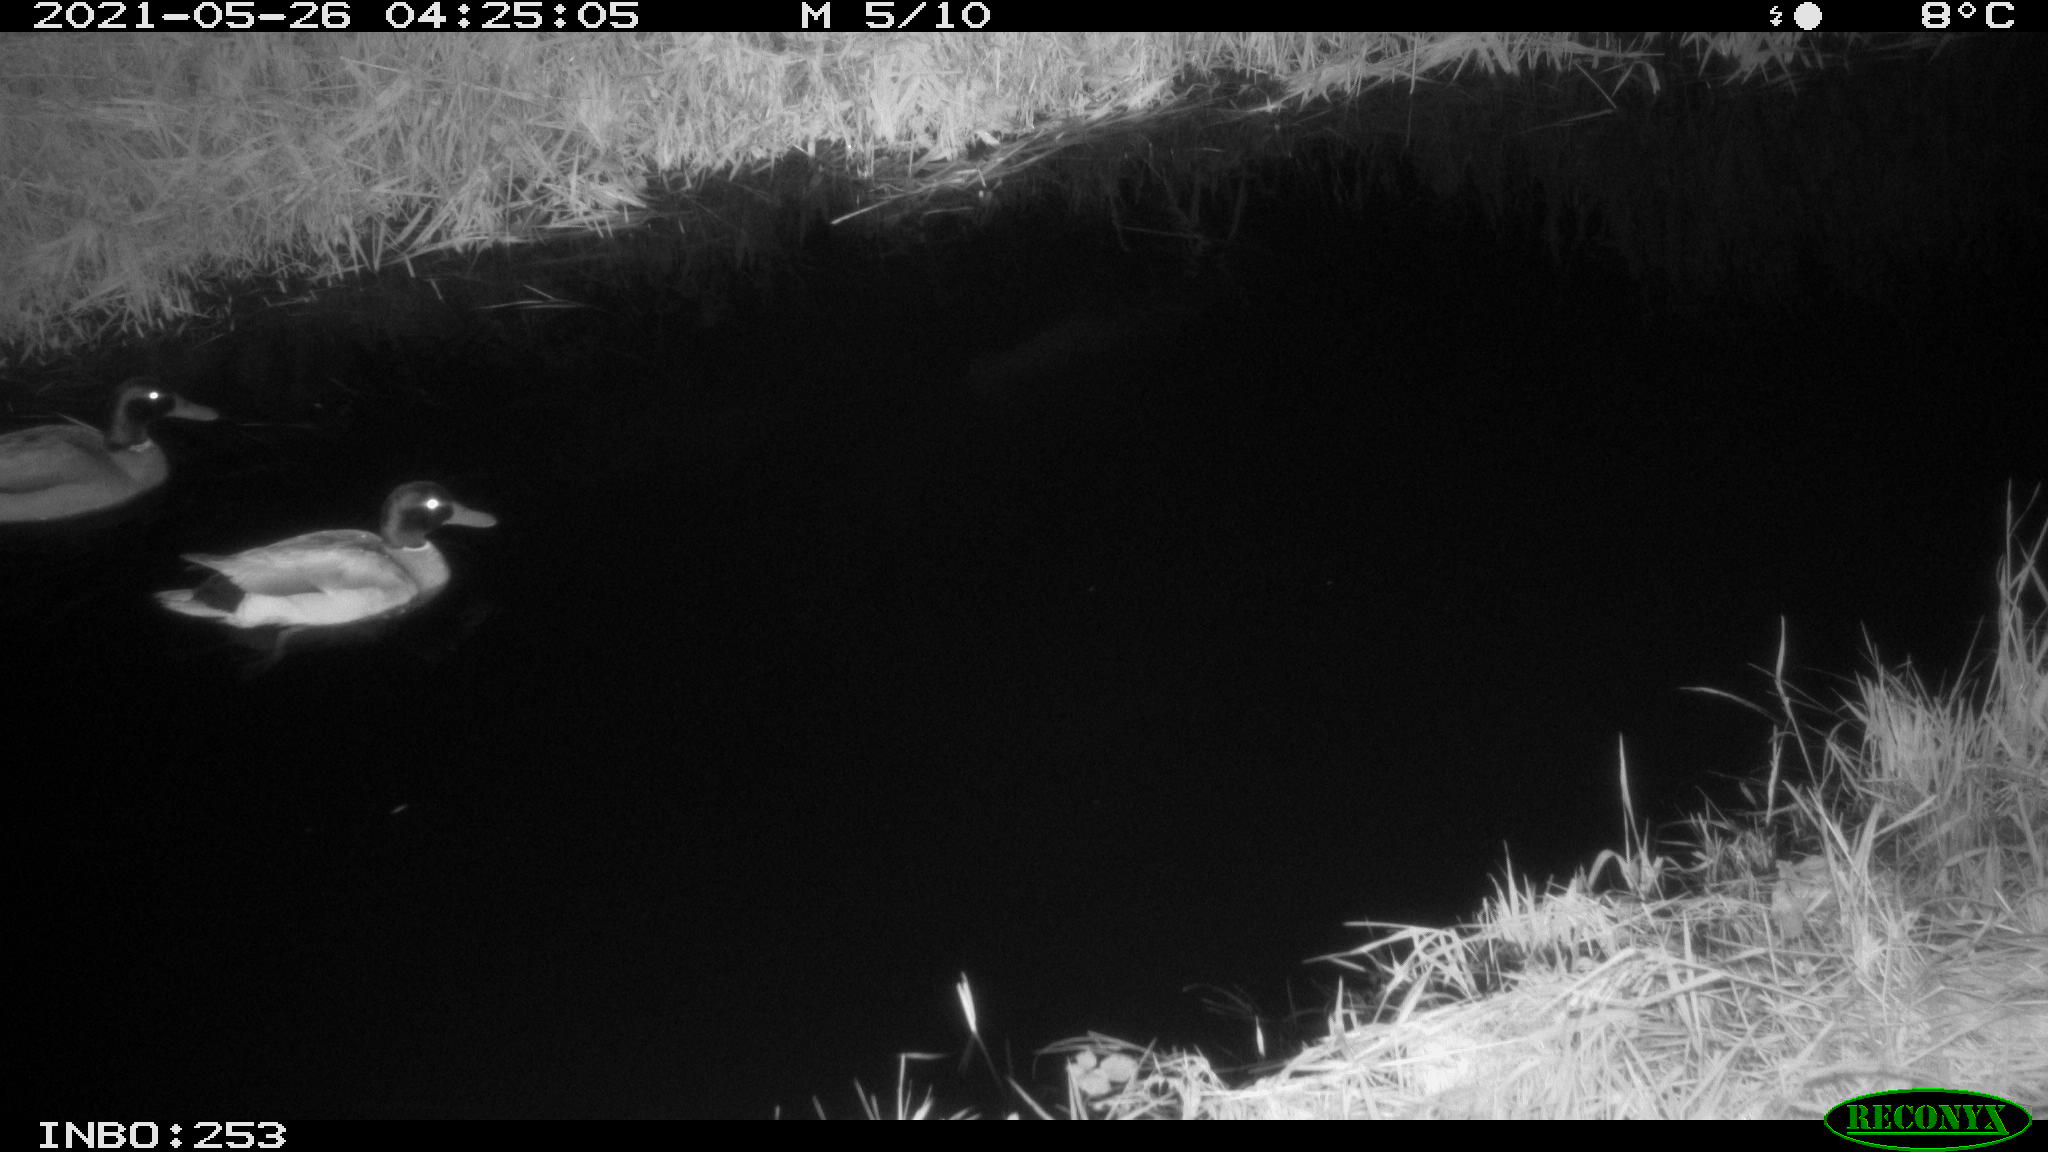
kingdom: Animalia
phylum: Chordata
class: Aves
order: Anseriformes
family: Anatidae
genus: Anas
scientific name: Anas
